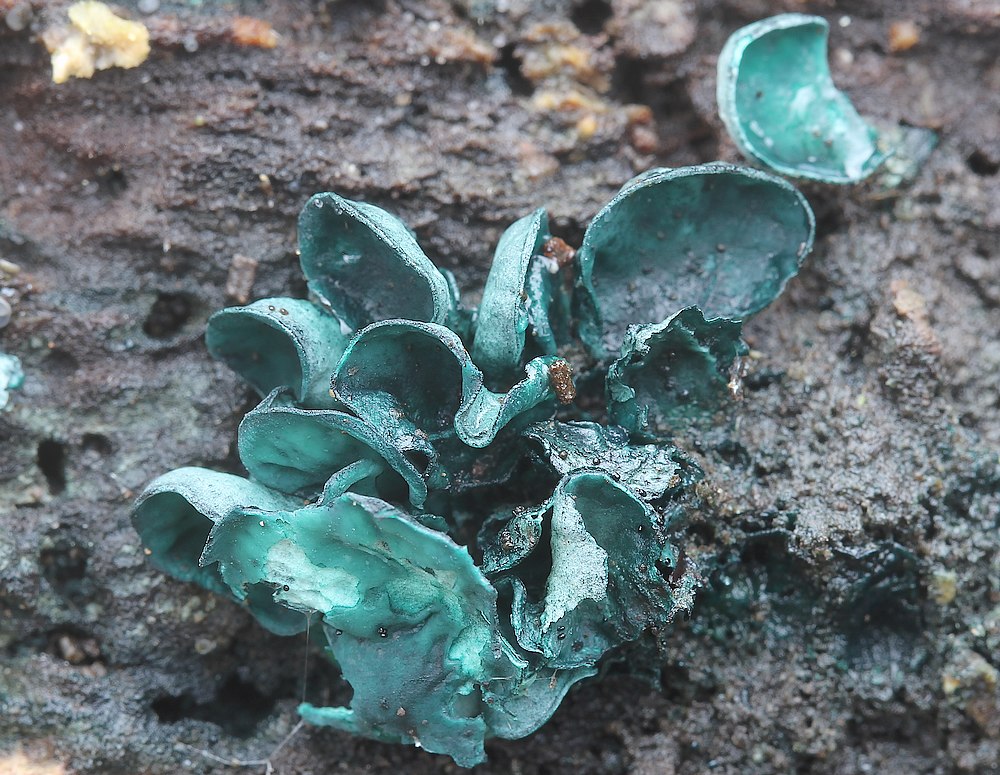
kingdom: Fungi
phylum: Ascomycota
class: Leotiomycetes
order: Helotiales
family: Chlorociboriaceae
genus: Chlorociboria
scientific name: Chlorociboria aeruginascens
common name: almindelig grønskive
